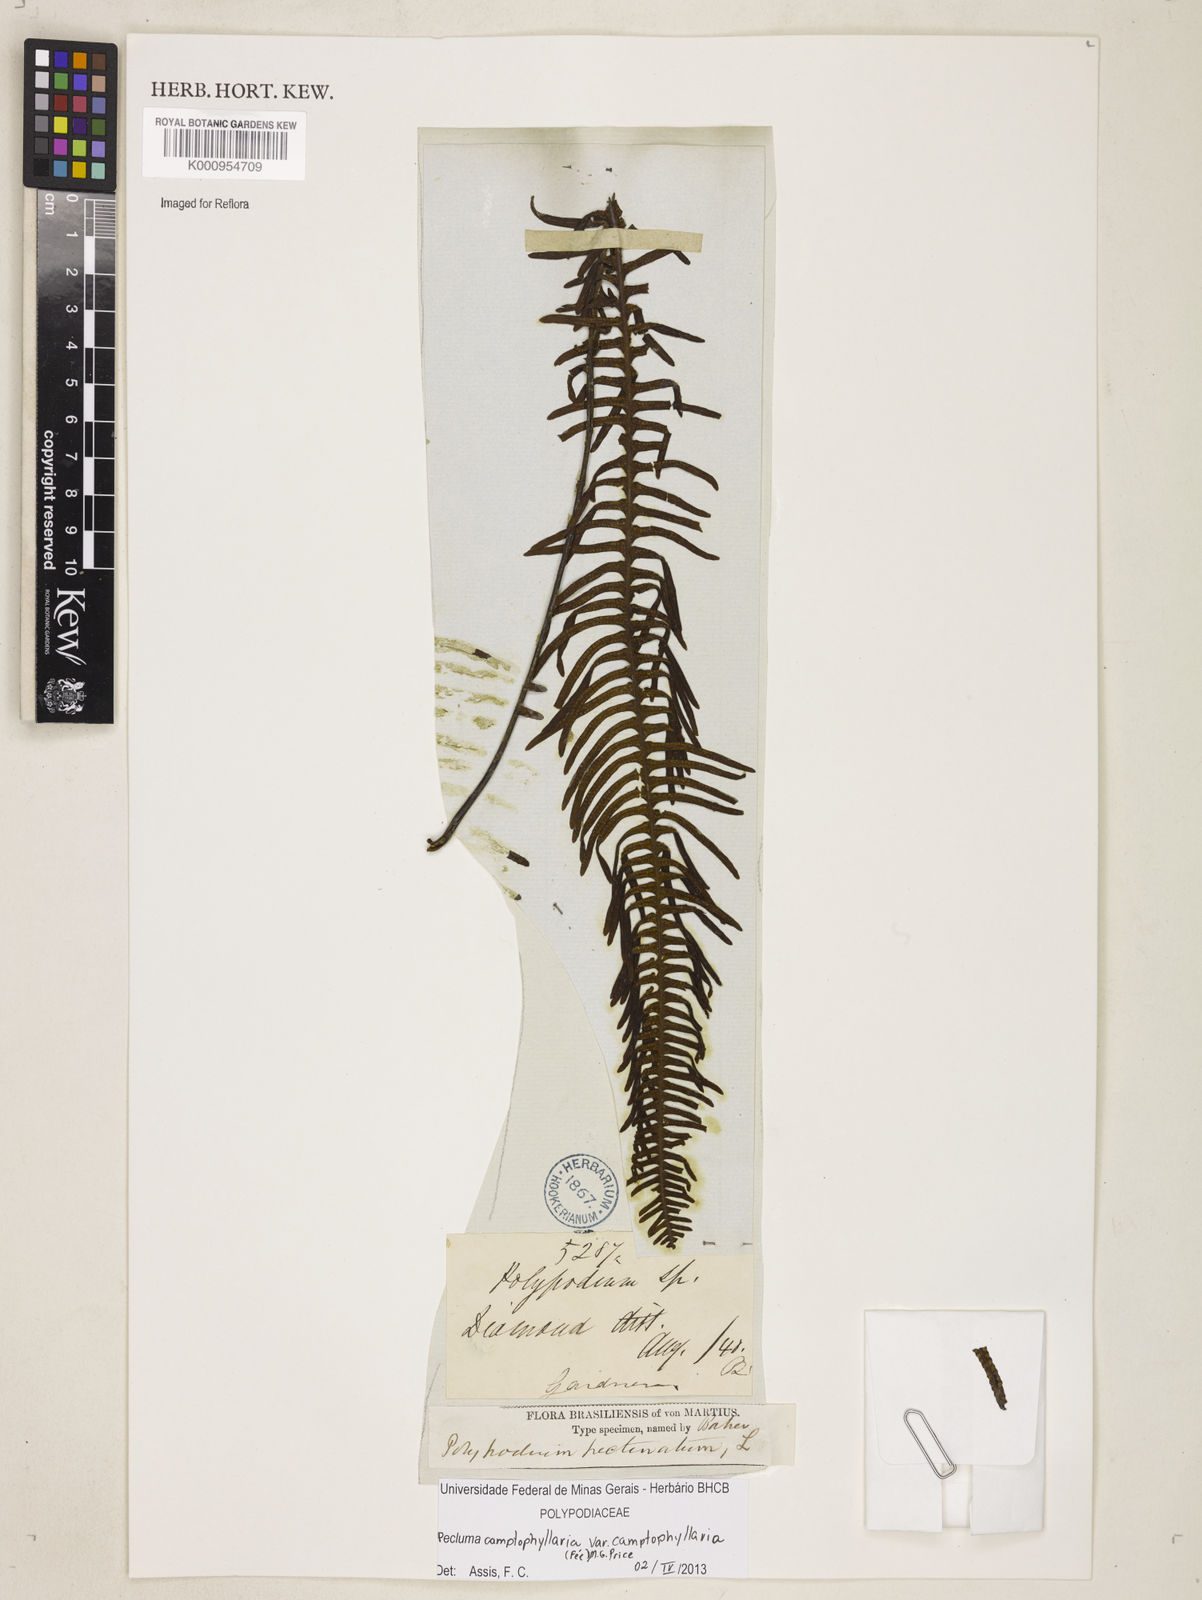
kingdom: Plantae
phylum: Tracheophyta
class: Polypodiopsida
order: Polypodiales
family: Polypodiaceae
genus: Pecluma
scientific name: Pecluma
